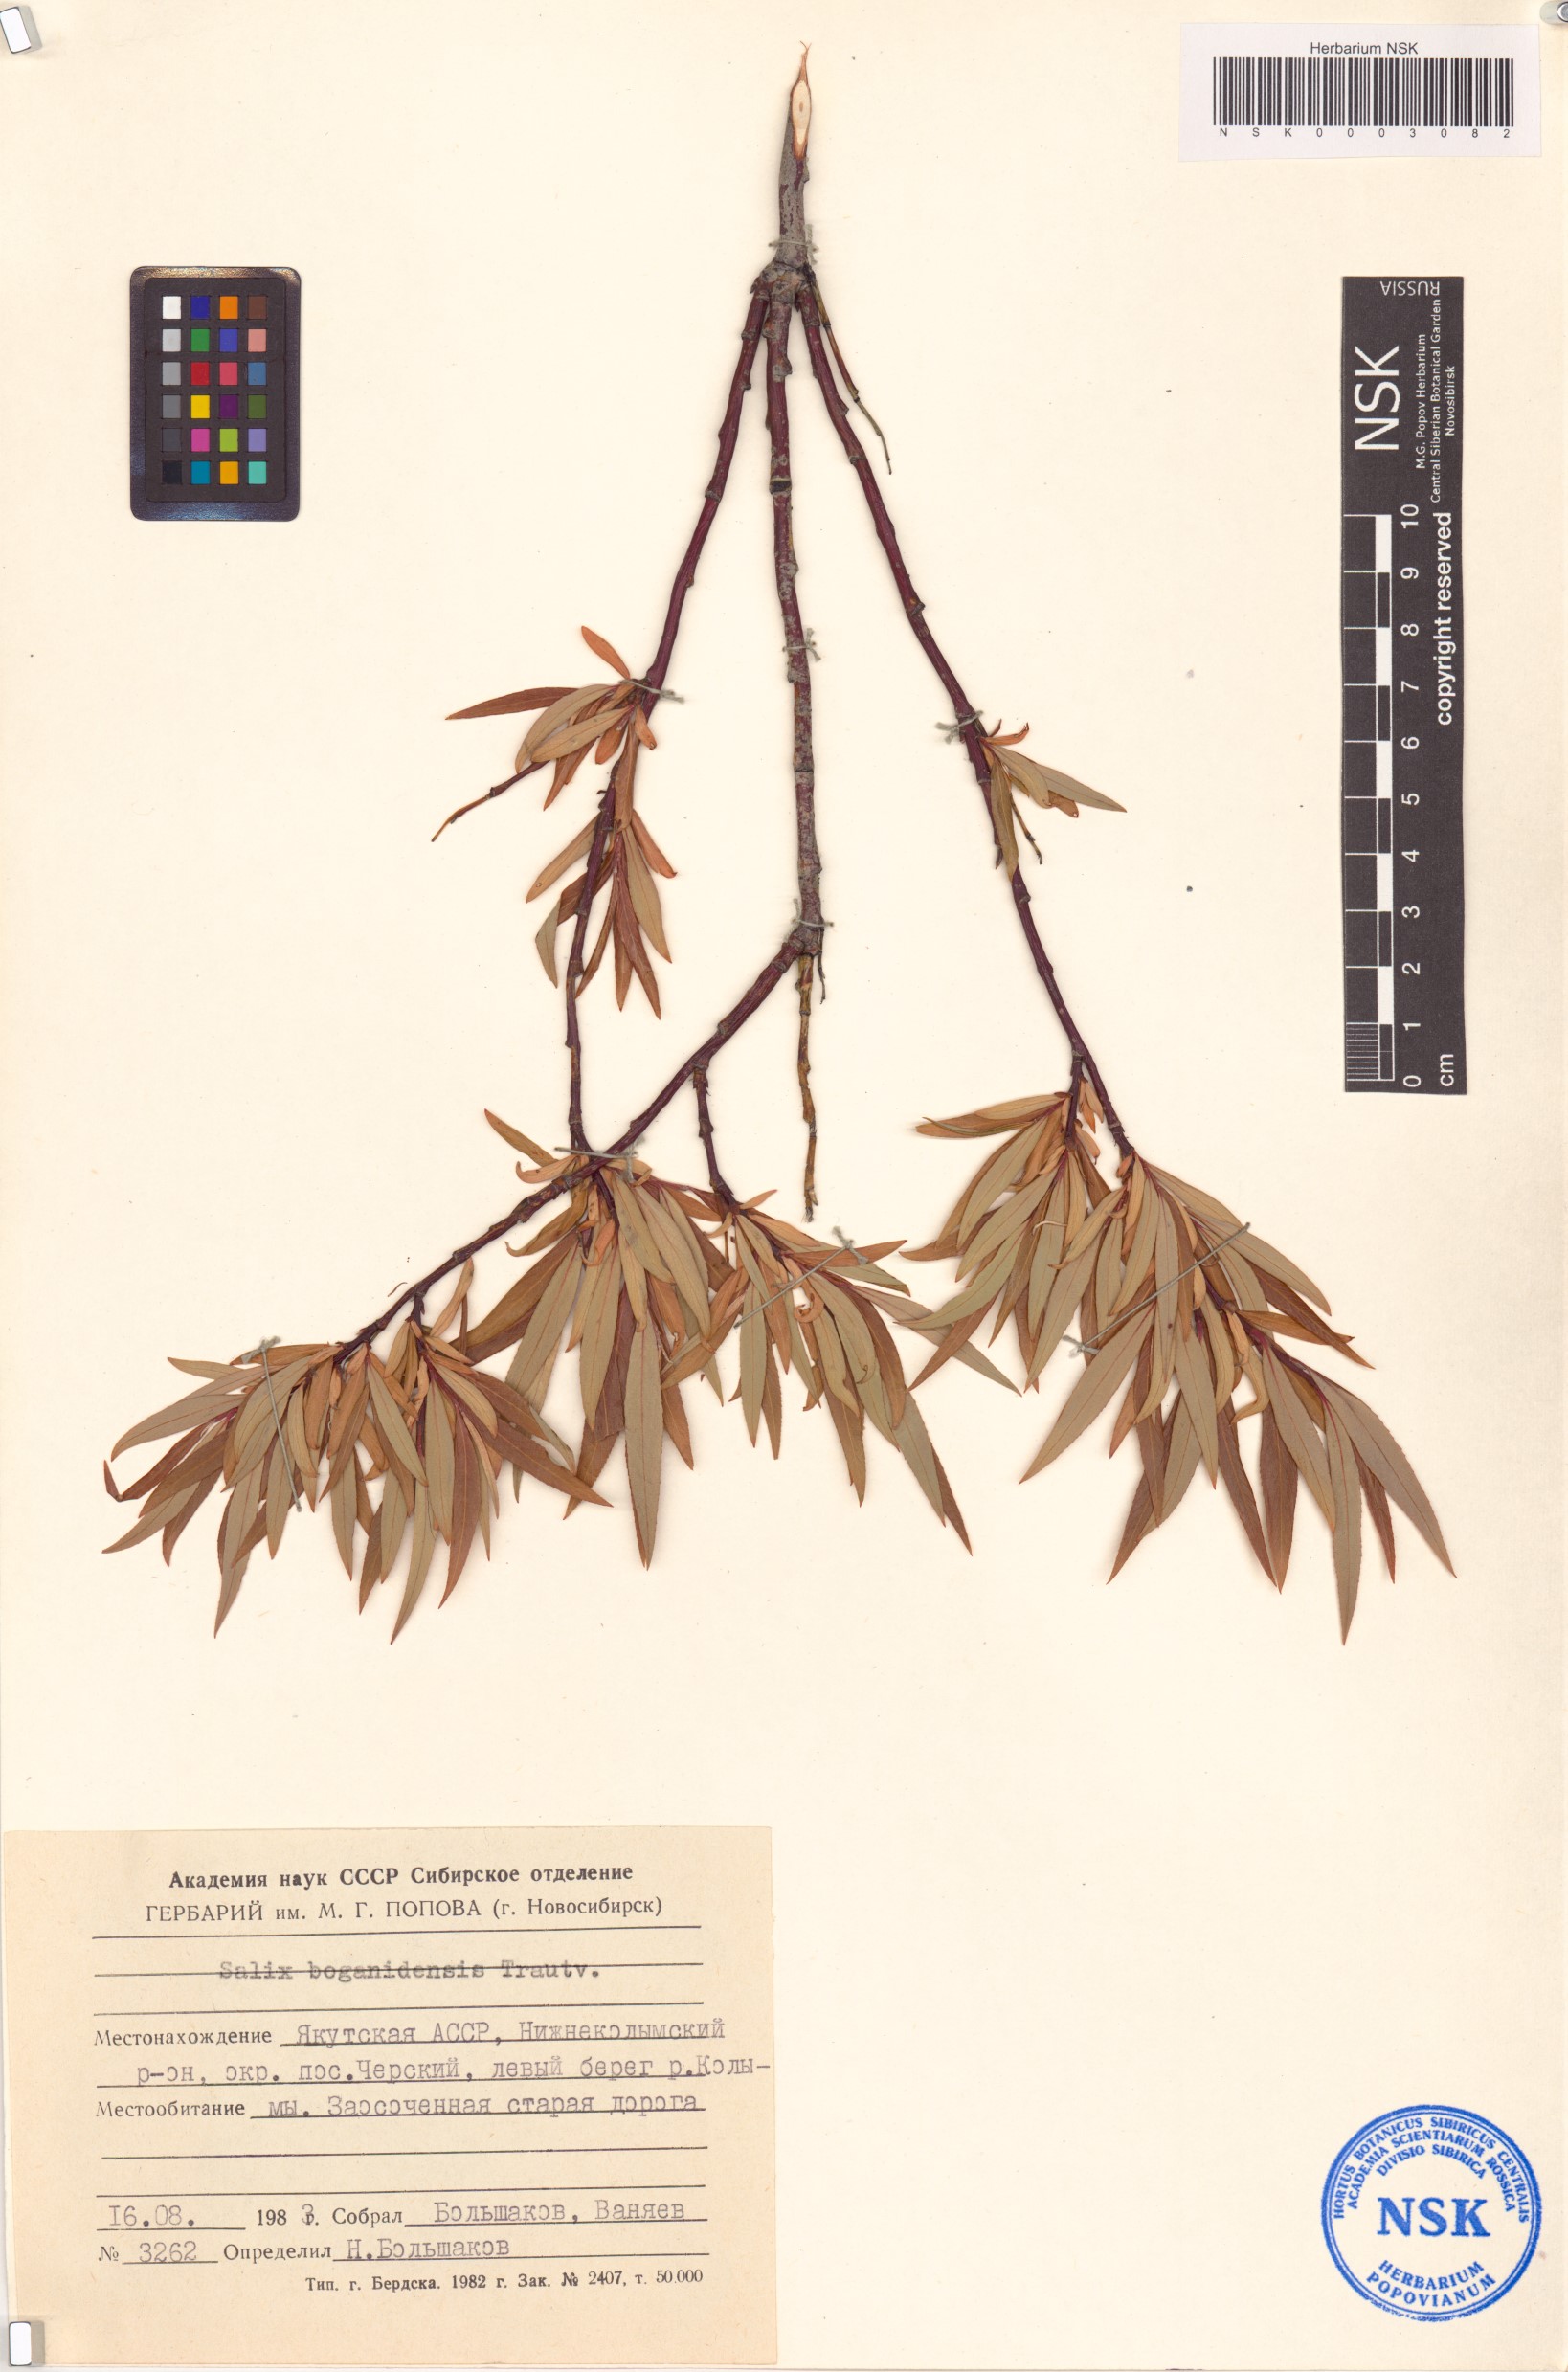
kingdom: Plantae
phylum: Tracheophyta
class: Magnoliopsida
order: Malpighiales
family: Salicaceae
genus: Salix
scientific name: Salix boganidensis
